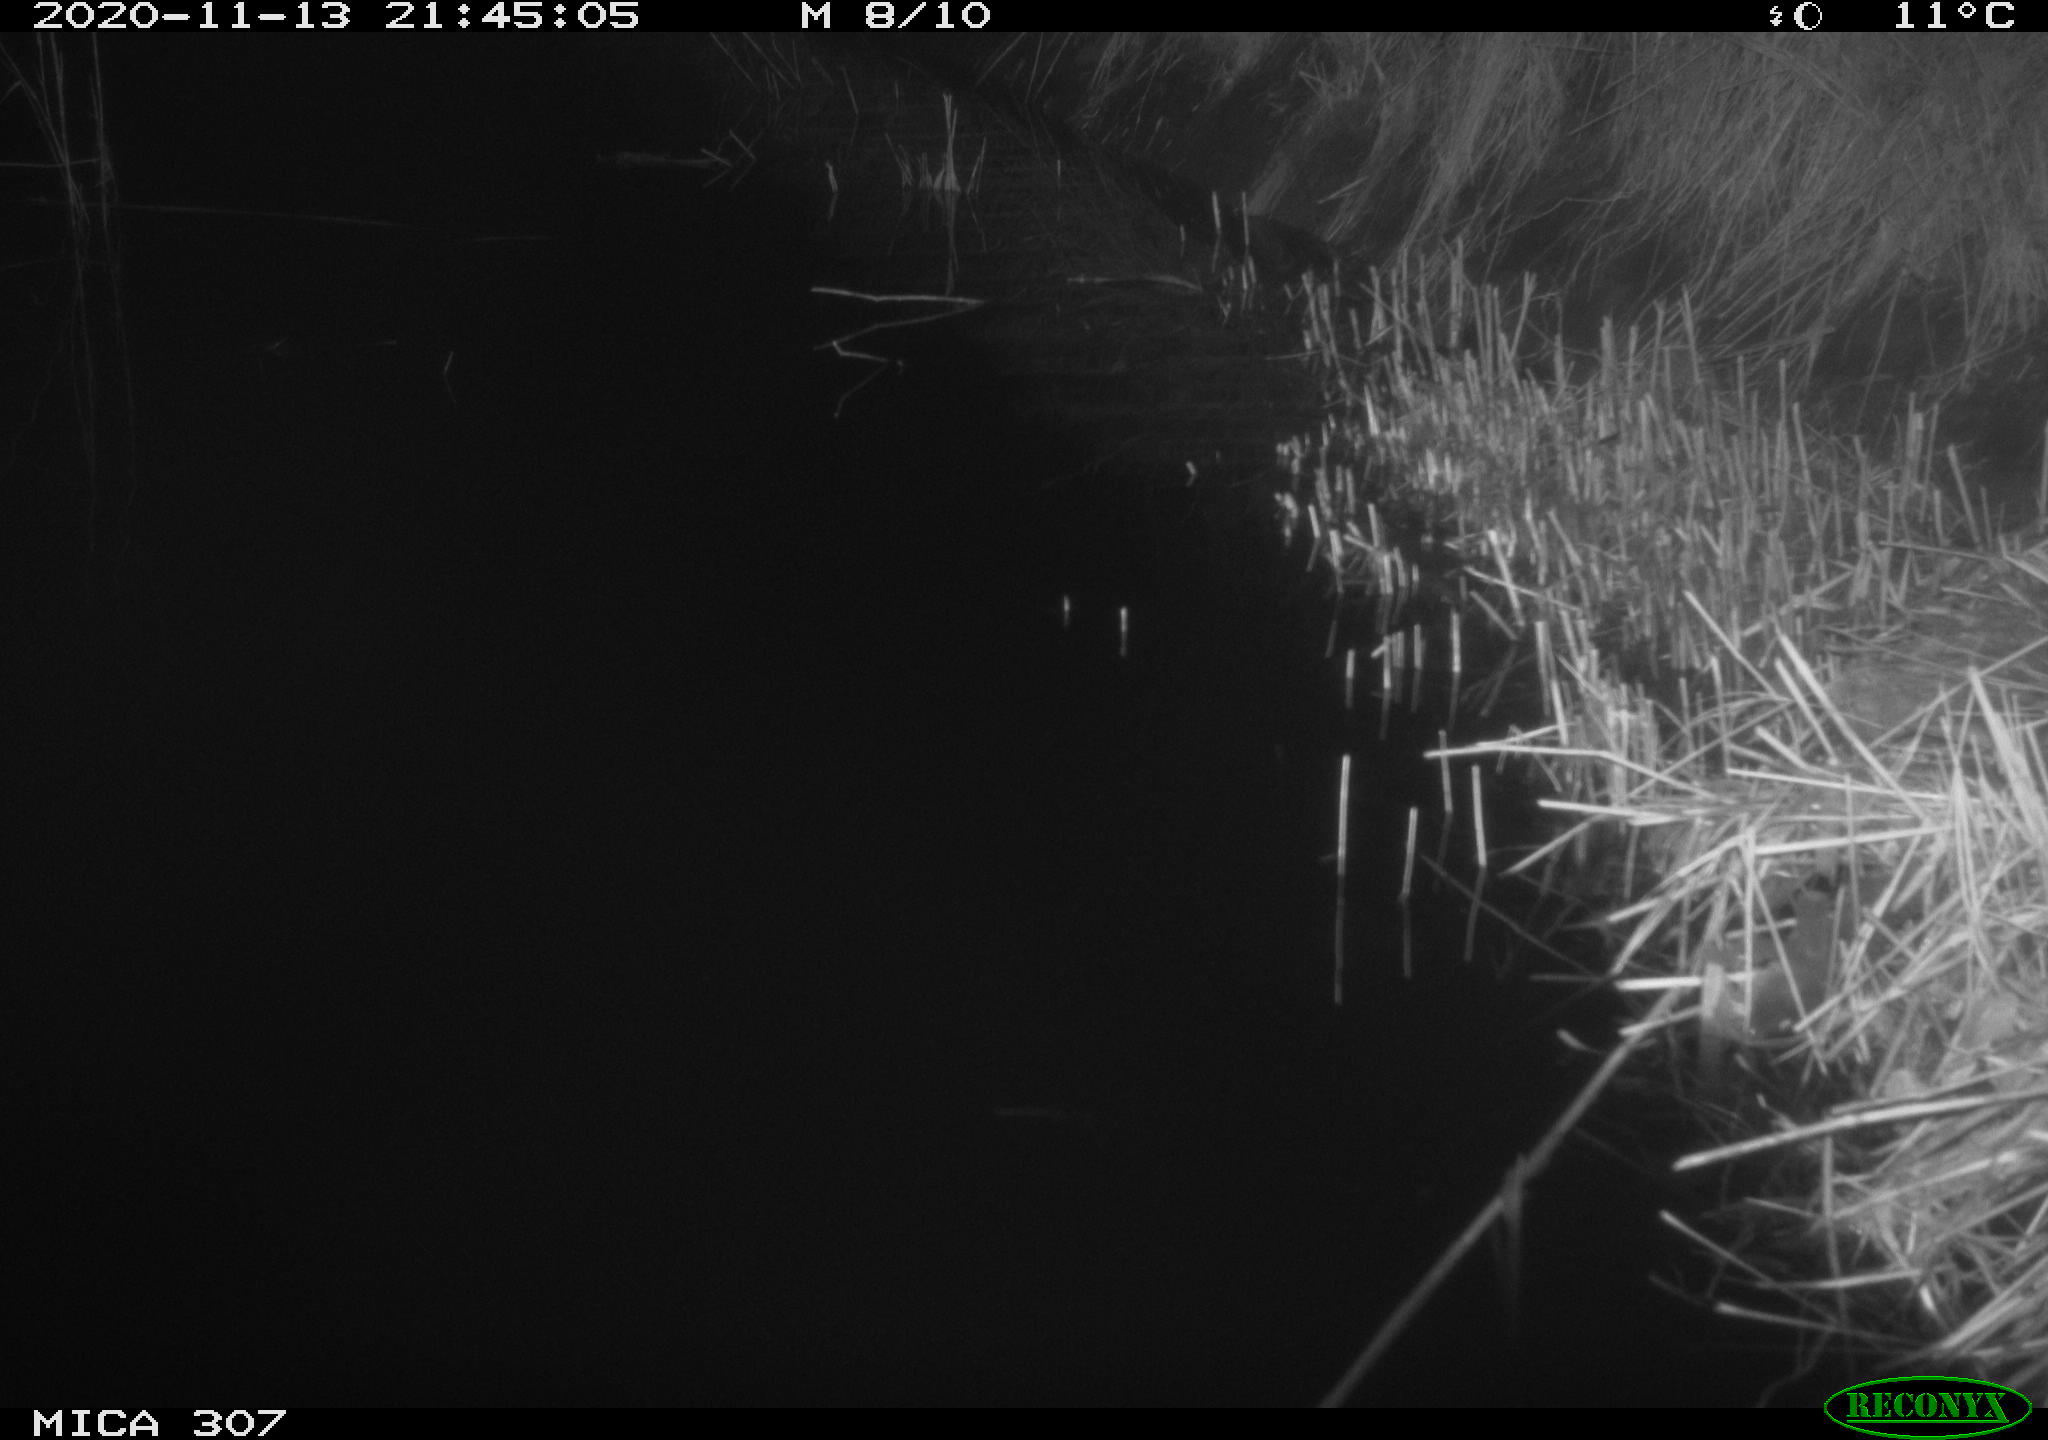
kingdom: Animalia
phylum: Chordata
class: Mammalia
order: Rodentia
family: Muridae
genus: Rattus
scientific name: Rattus norvegicus
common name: Brown rat
